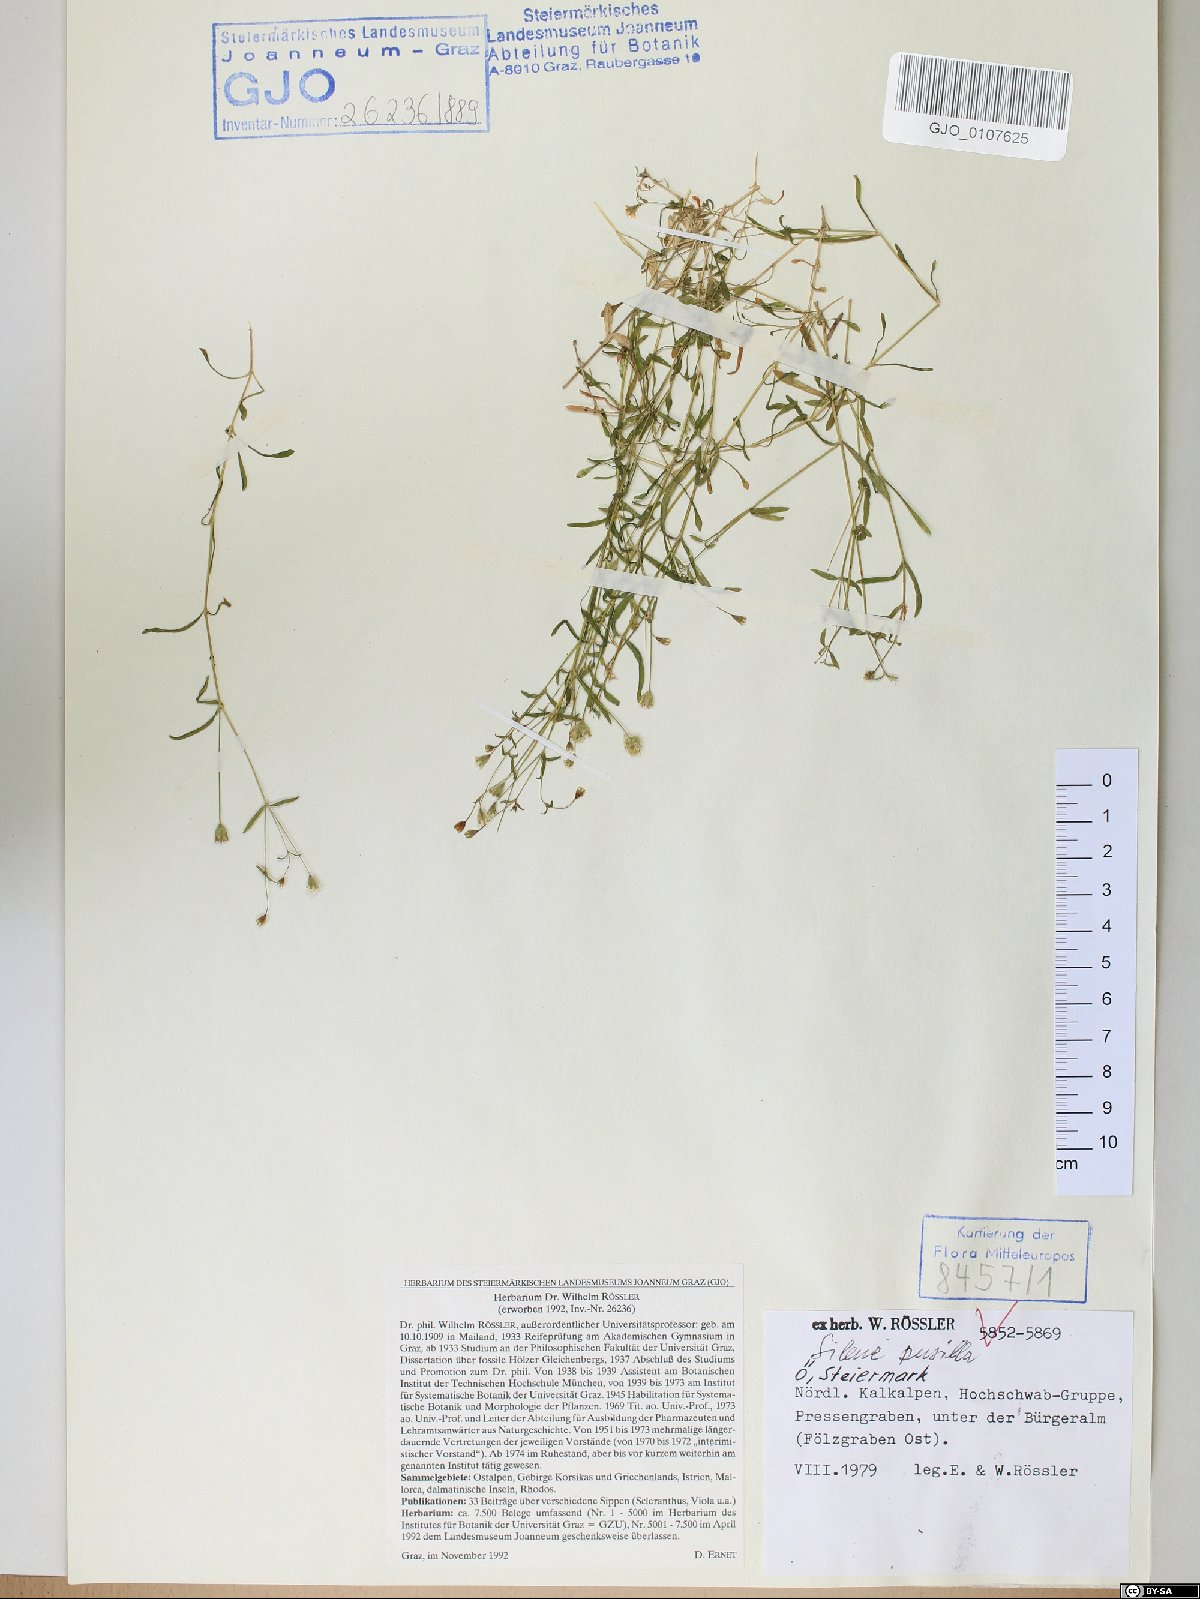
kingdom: Plantae
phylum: Tracheophyta
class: Magnoliopsida
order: Caryophyllales
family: Caryophyllaceae
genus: Heliosperma
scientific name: Heliosperma pusillum
